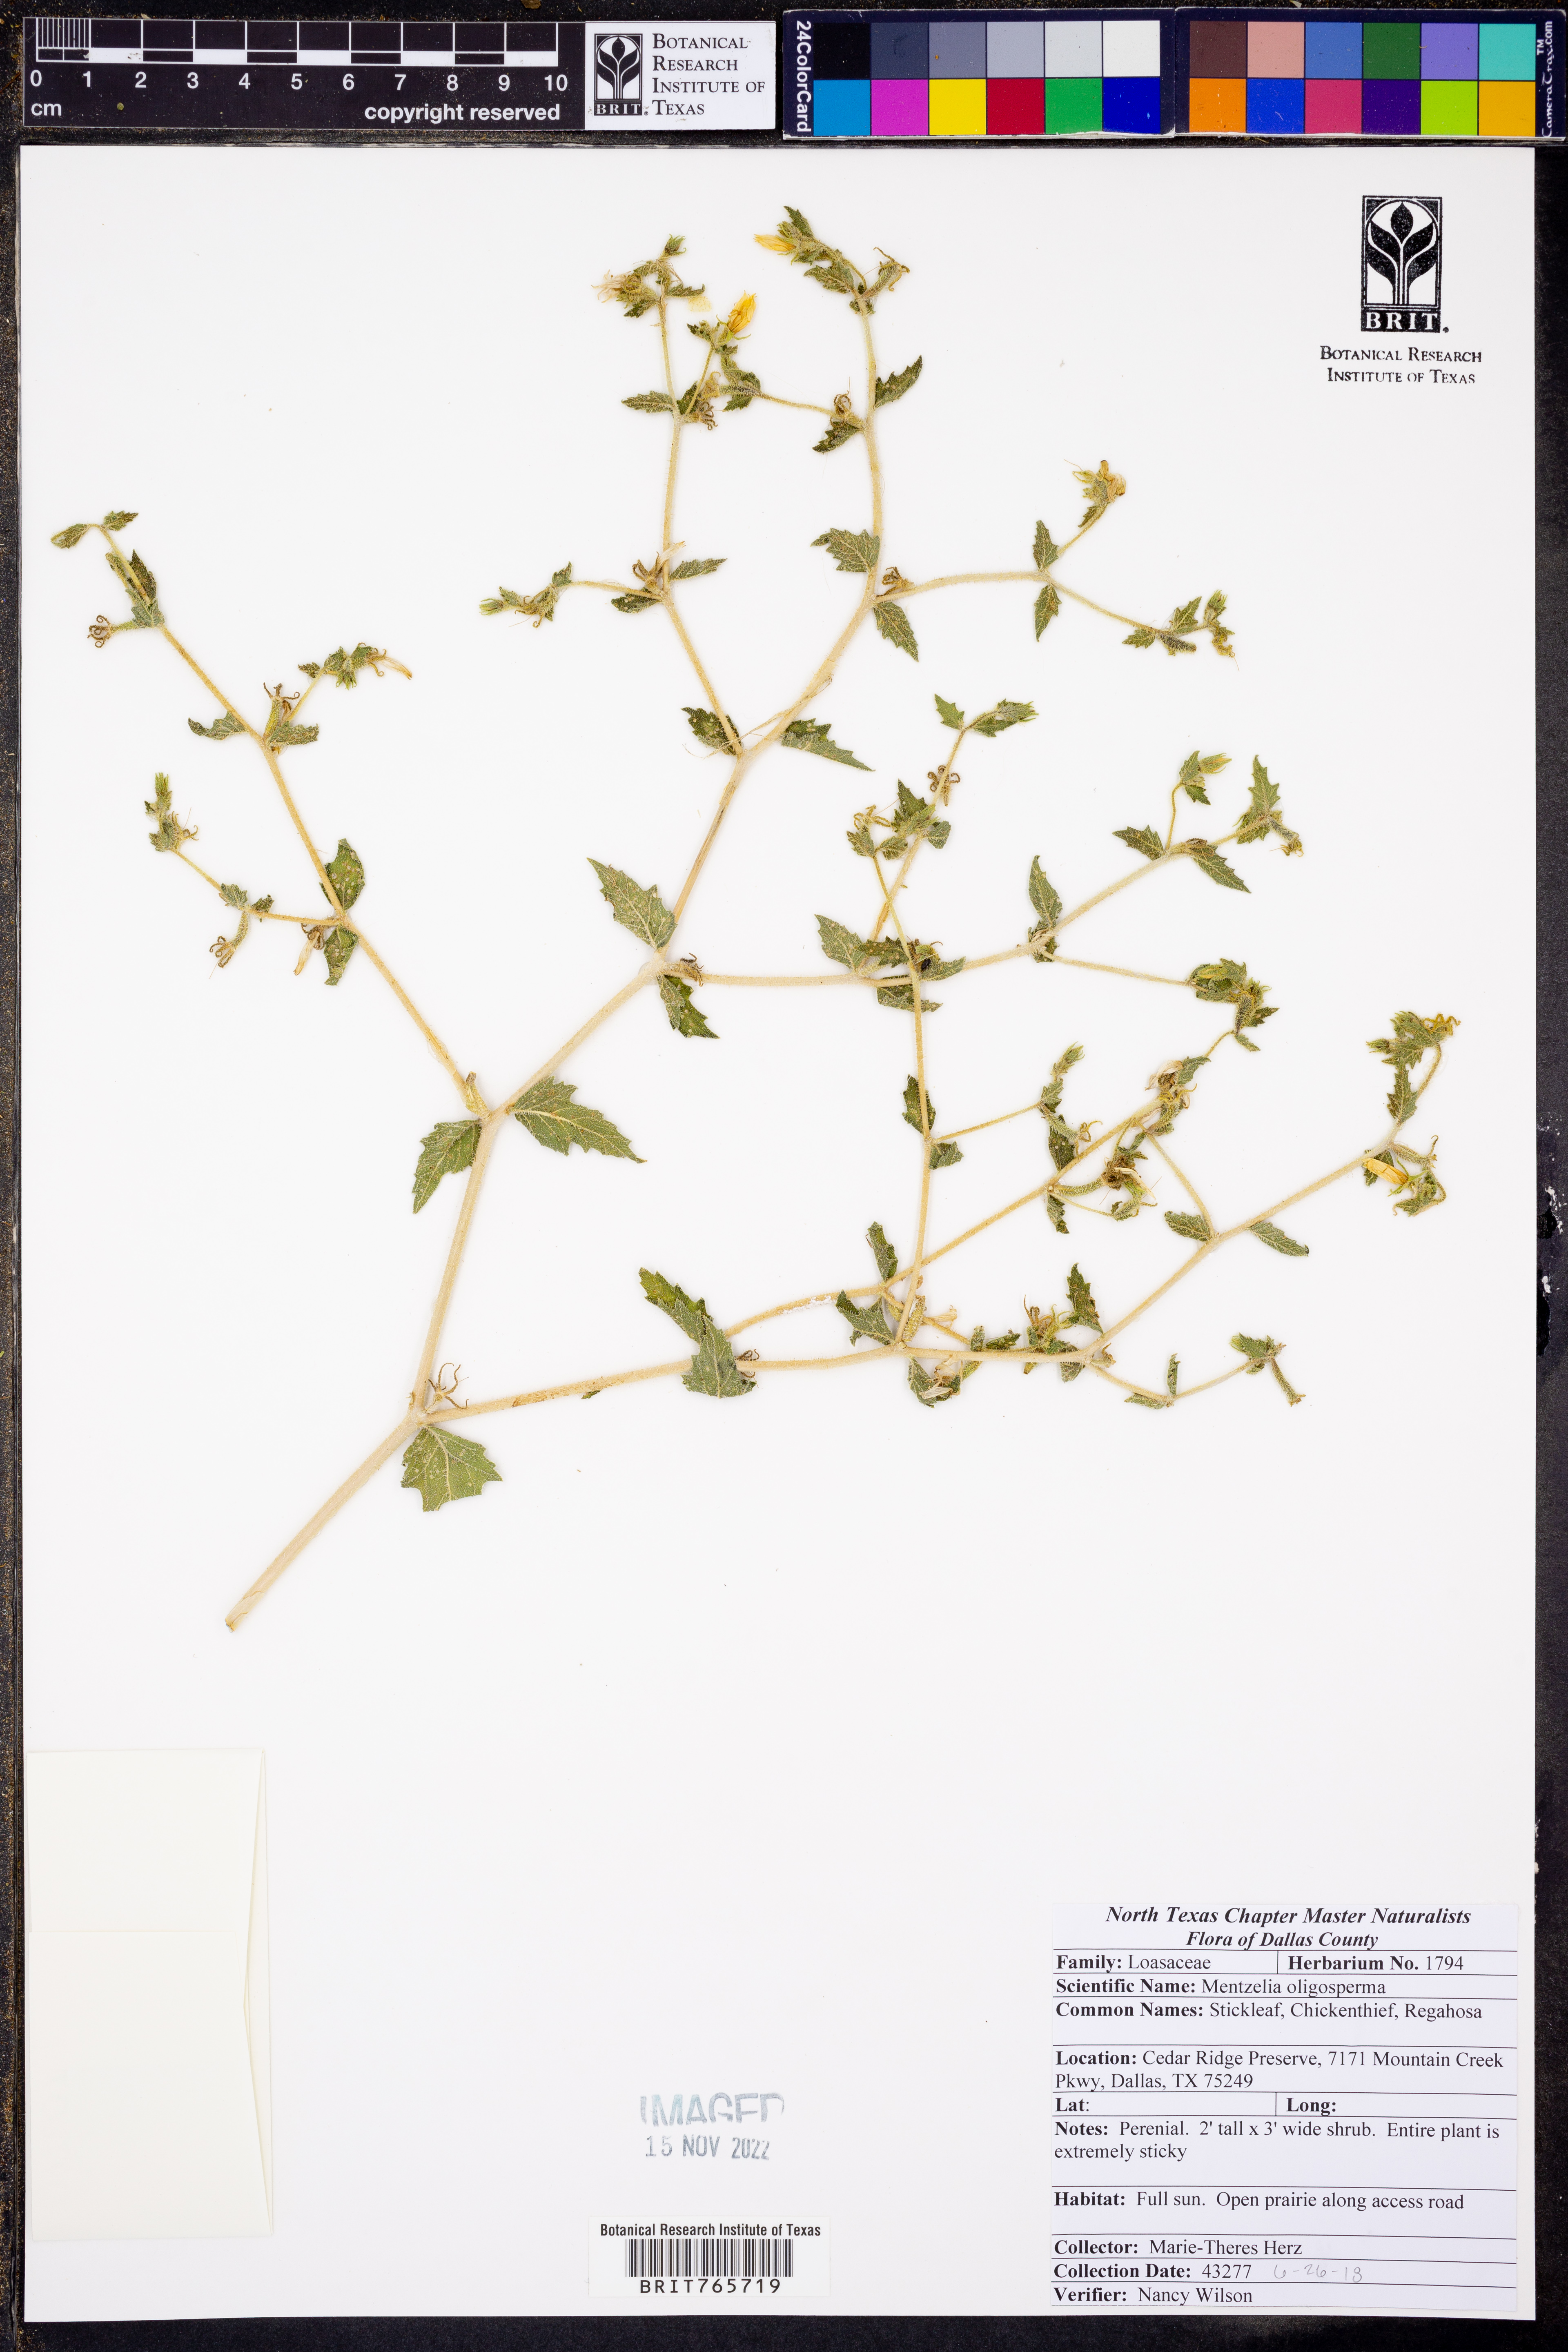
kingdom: Plantae
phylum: Tracheophyta
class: Magnoliopsida
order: Cornales
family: Loasaceae
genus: Mentzelia
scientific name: Mentzelia oligosperma
